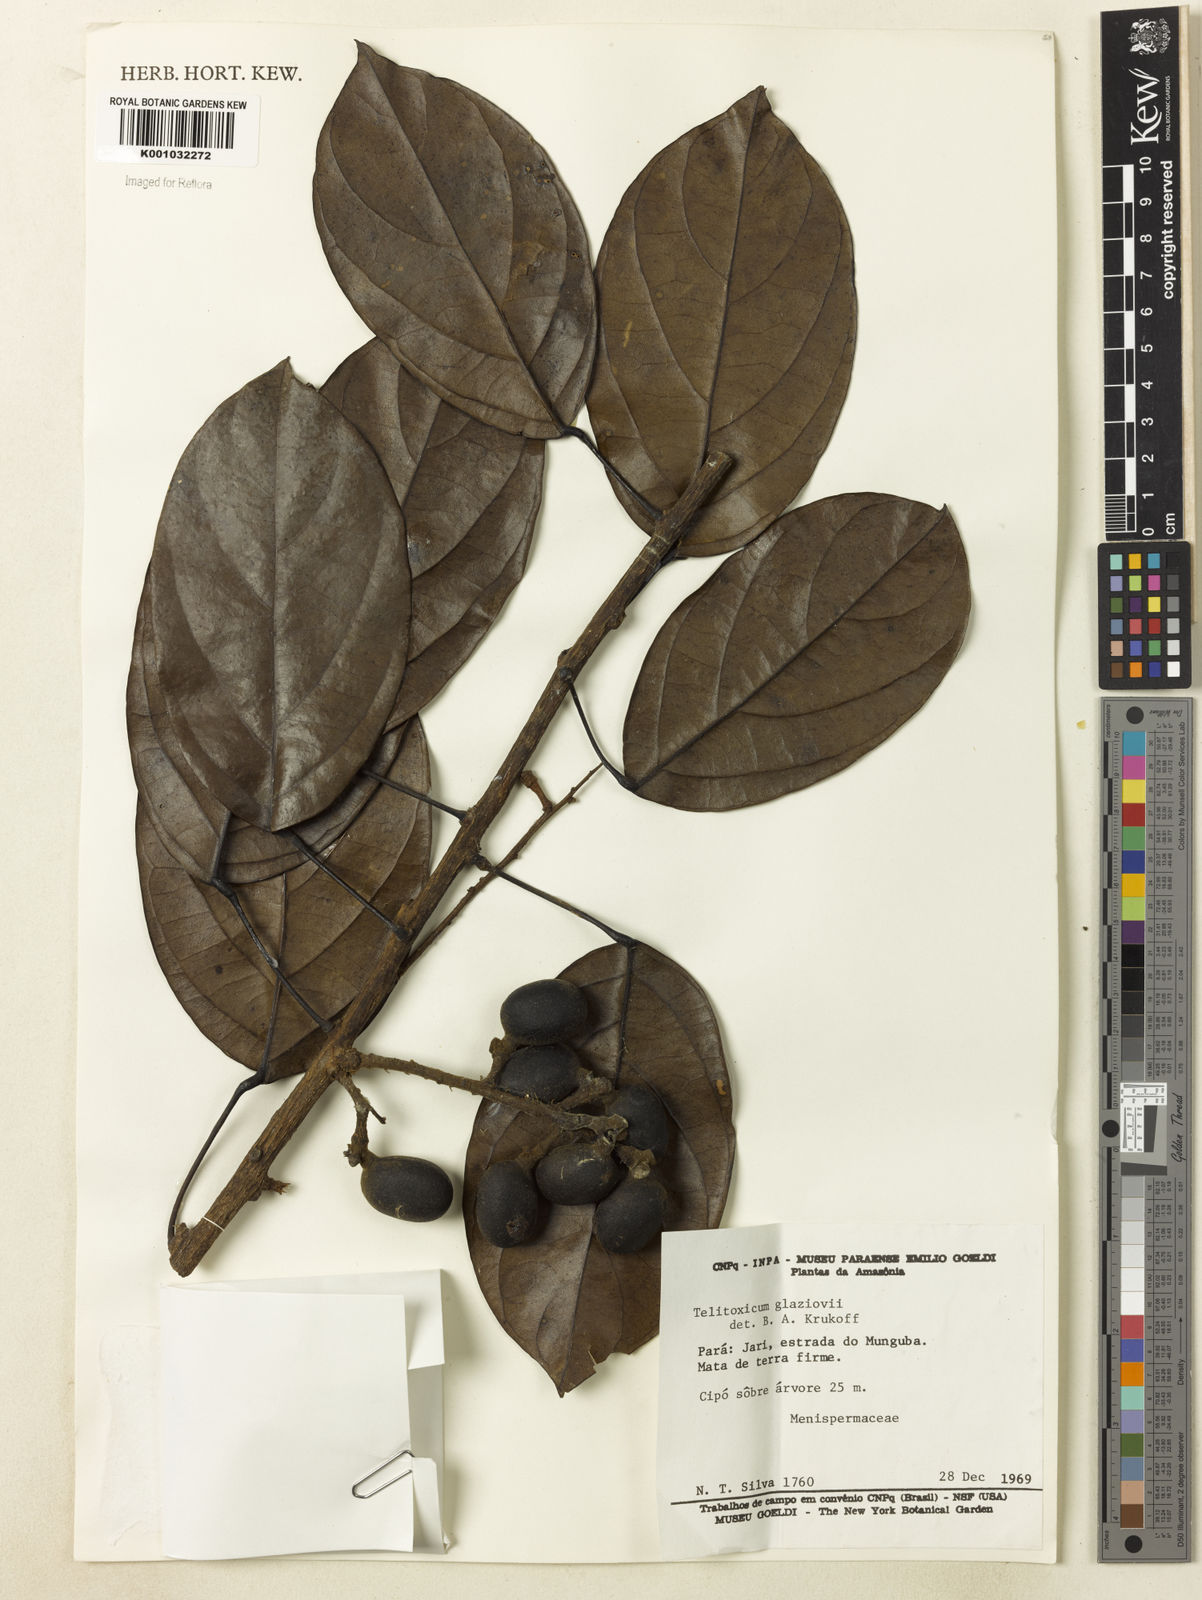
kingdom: Plantae
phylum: Tracheophyta
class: Magnoliopsida
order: Ranunculales
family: Menispermaceae
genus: Telitoxicum
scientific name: Telitoxicum glaziovii
